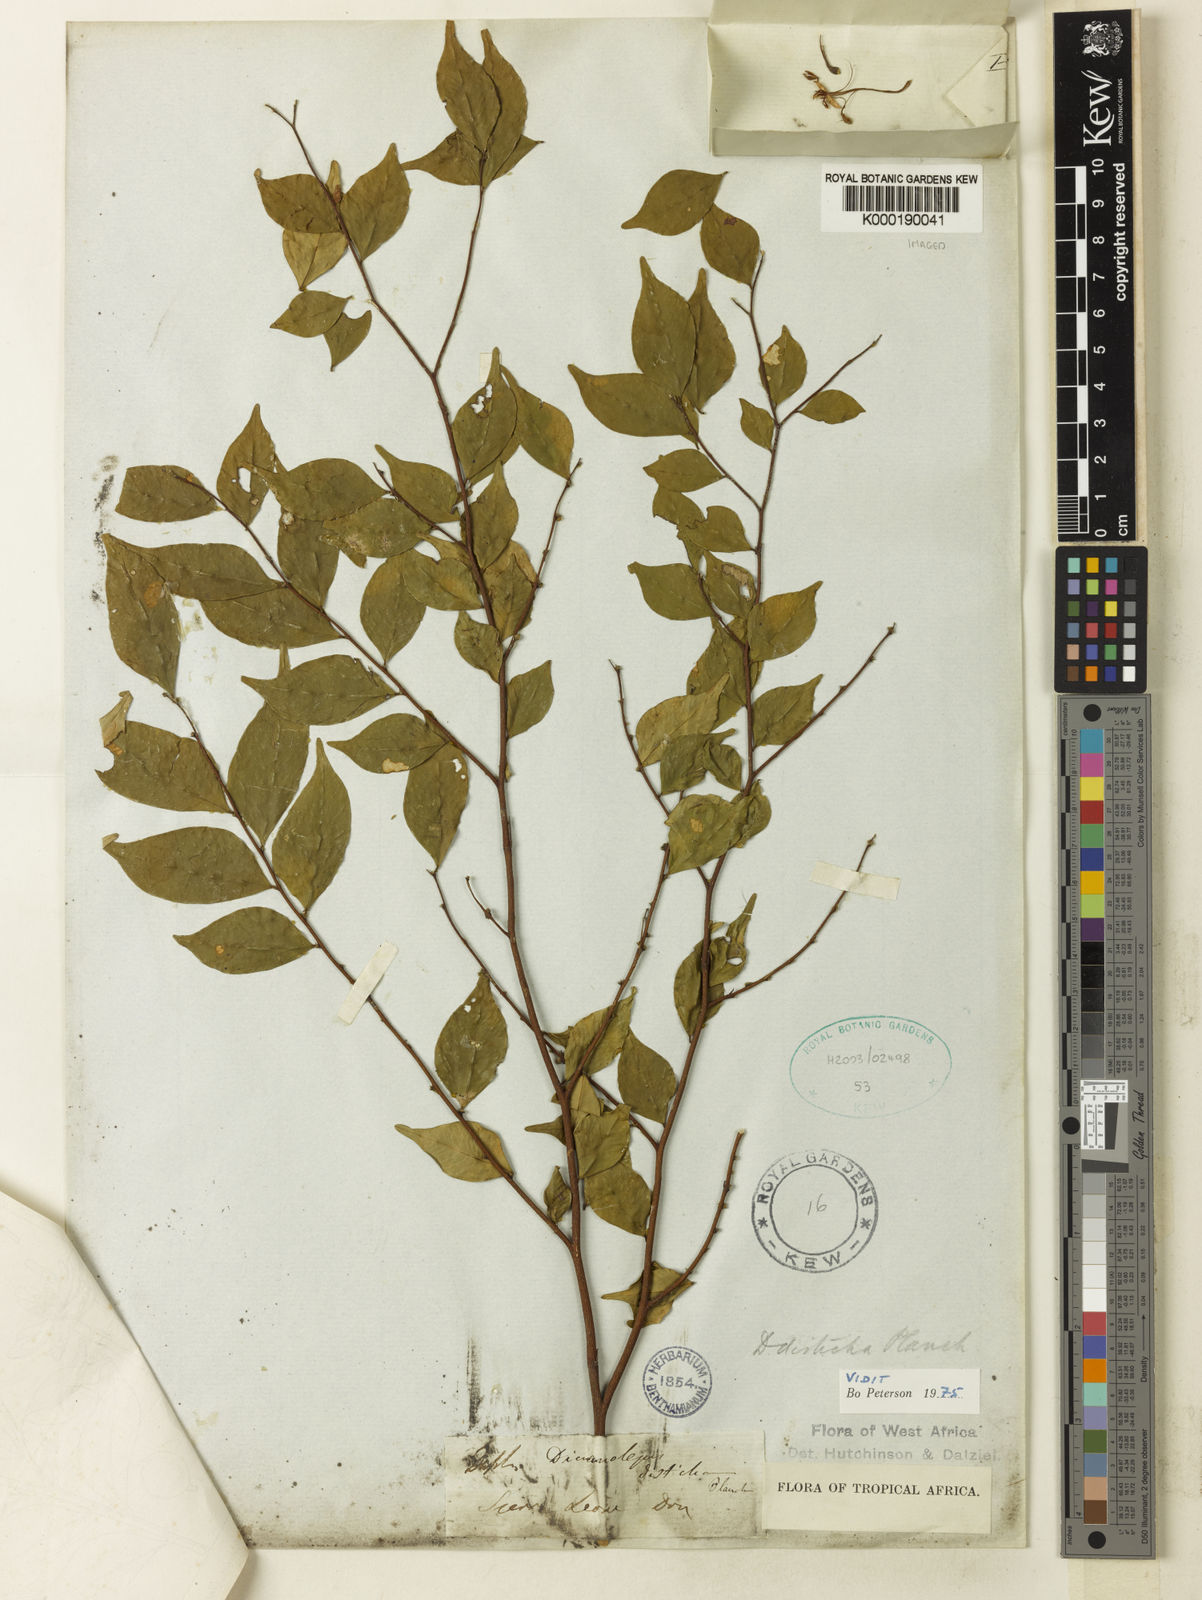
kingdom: Plantae
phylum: Tracheophyta
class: Magnoliopsida
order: Malvales
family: Thymelaeaceae
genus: Dicranolepis
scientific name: Dicranolepis disticha
